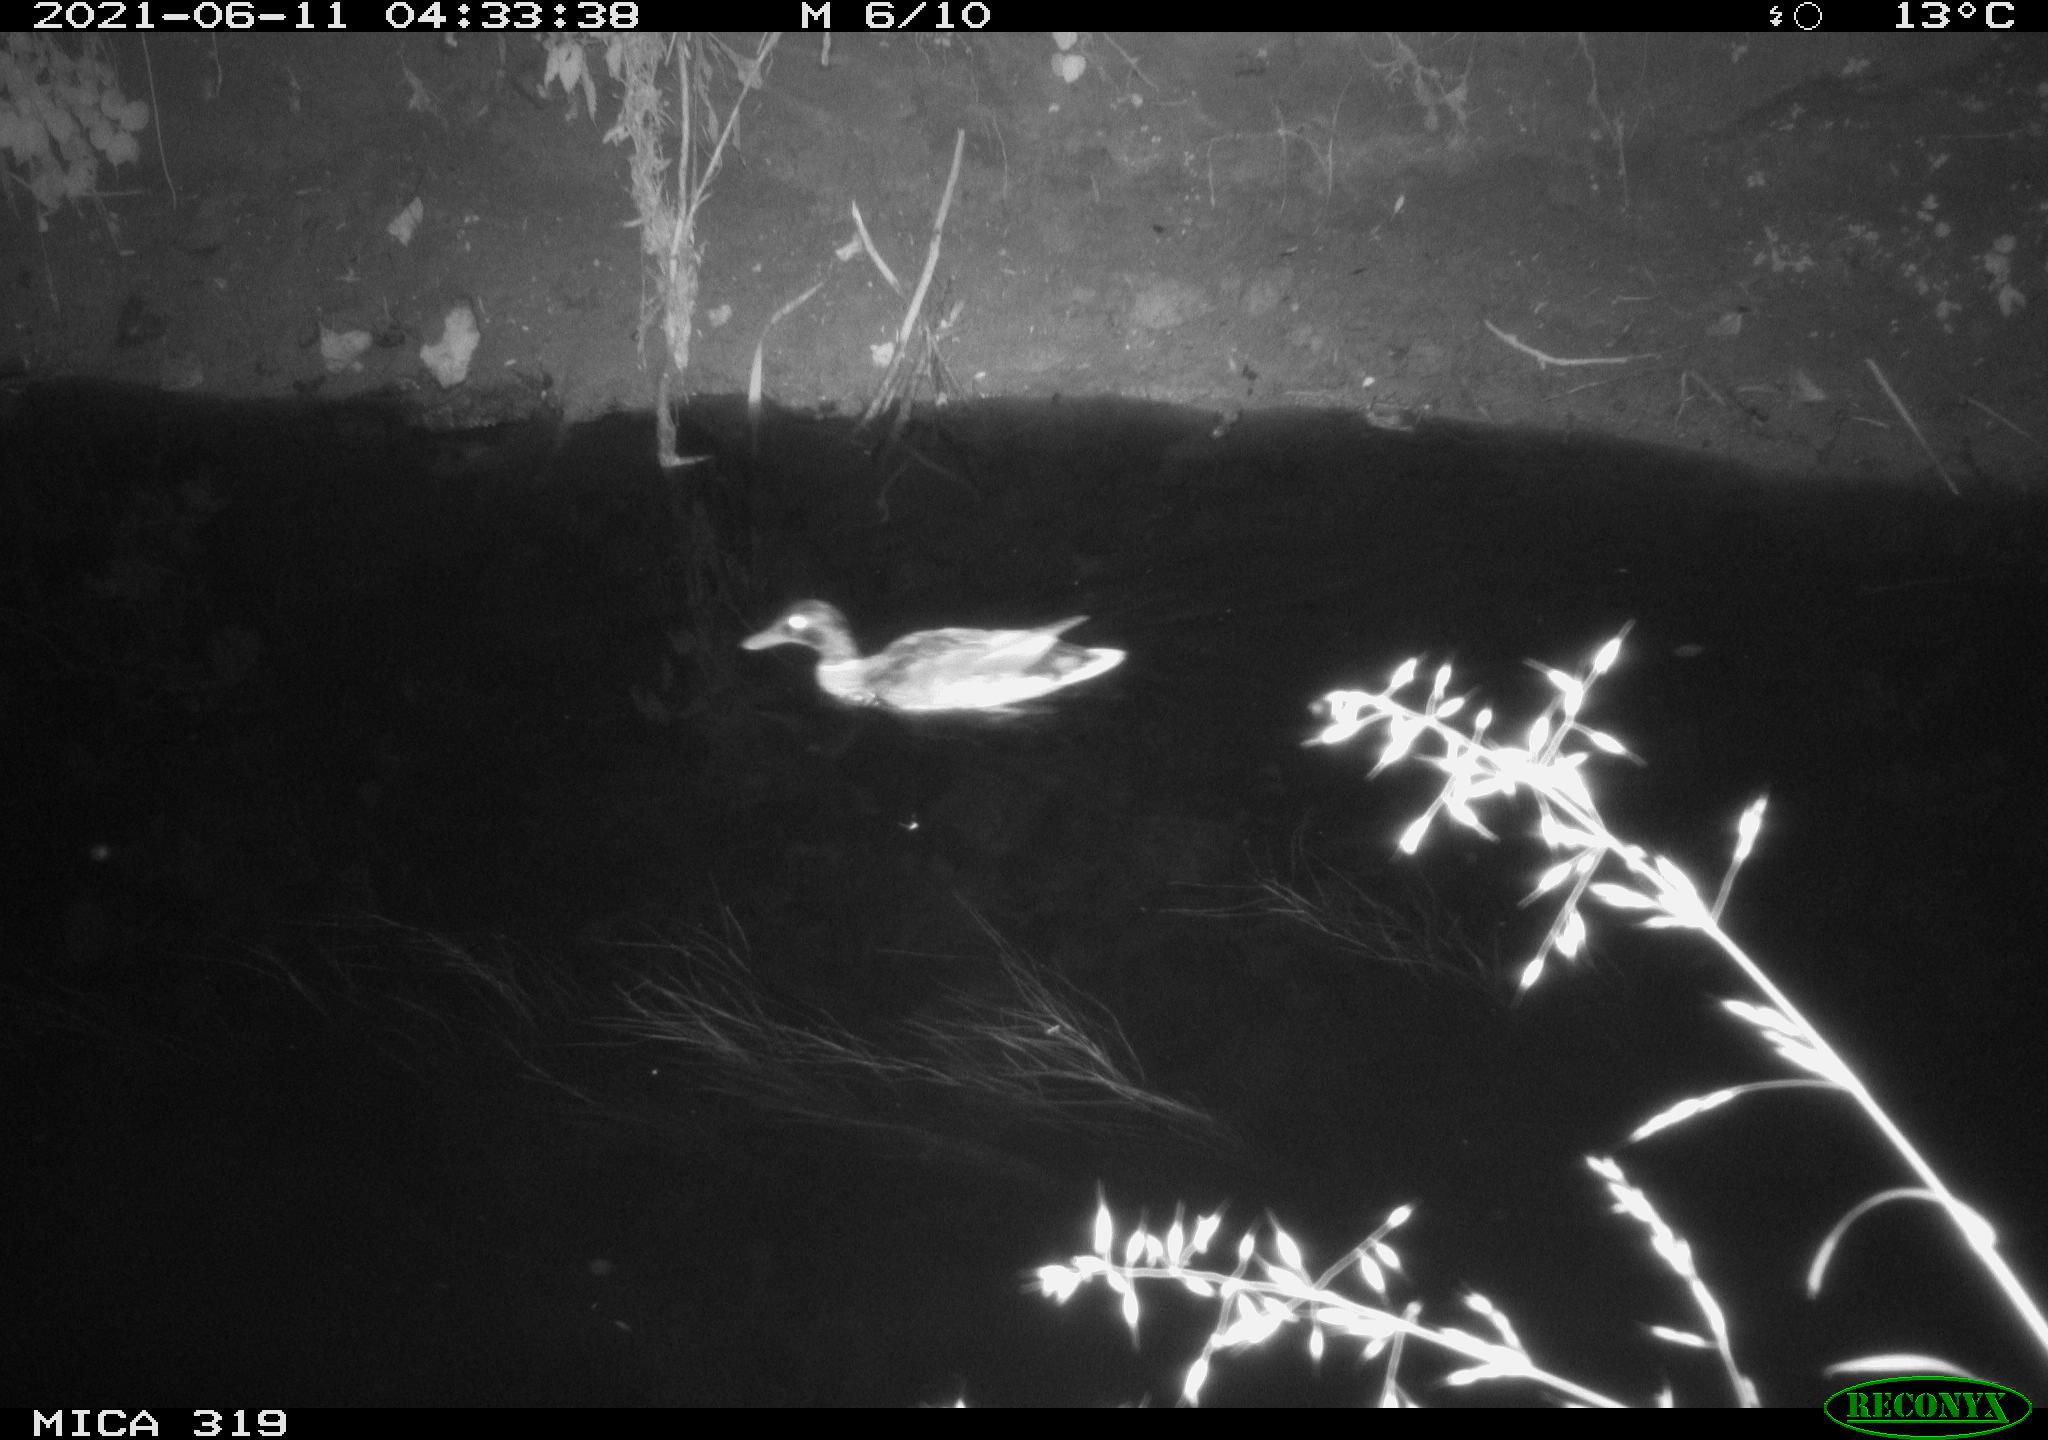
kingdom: Animalia
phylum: Chordata
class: Aves
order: Anseriformes
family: Anatidae
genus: Anas
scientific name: Anas platyrhynchos
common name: Mallard
